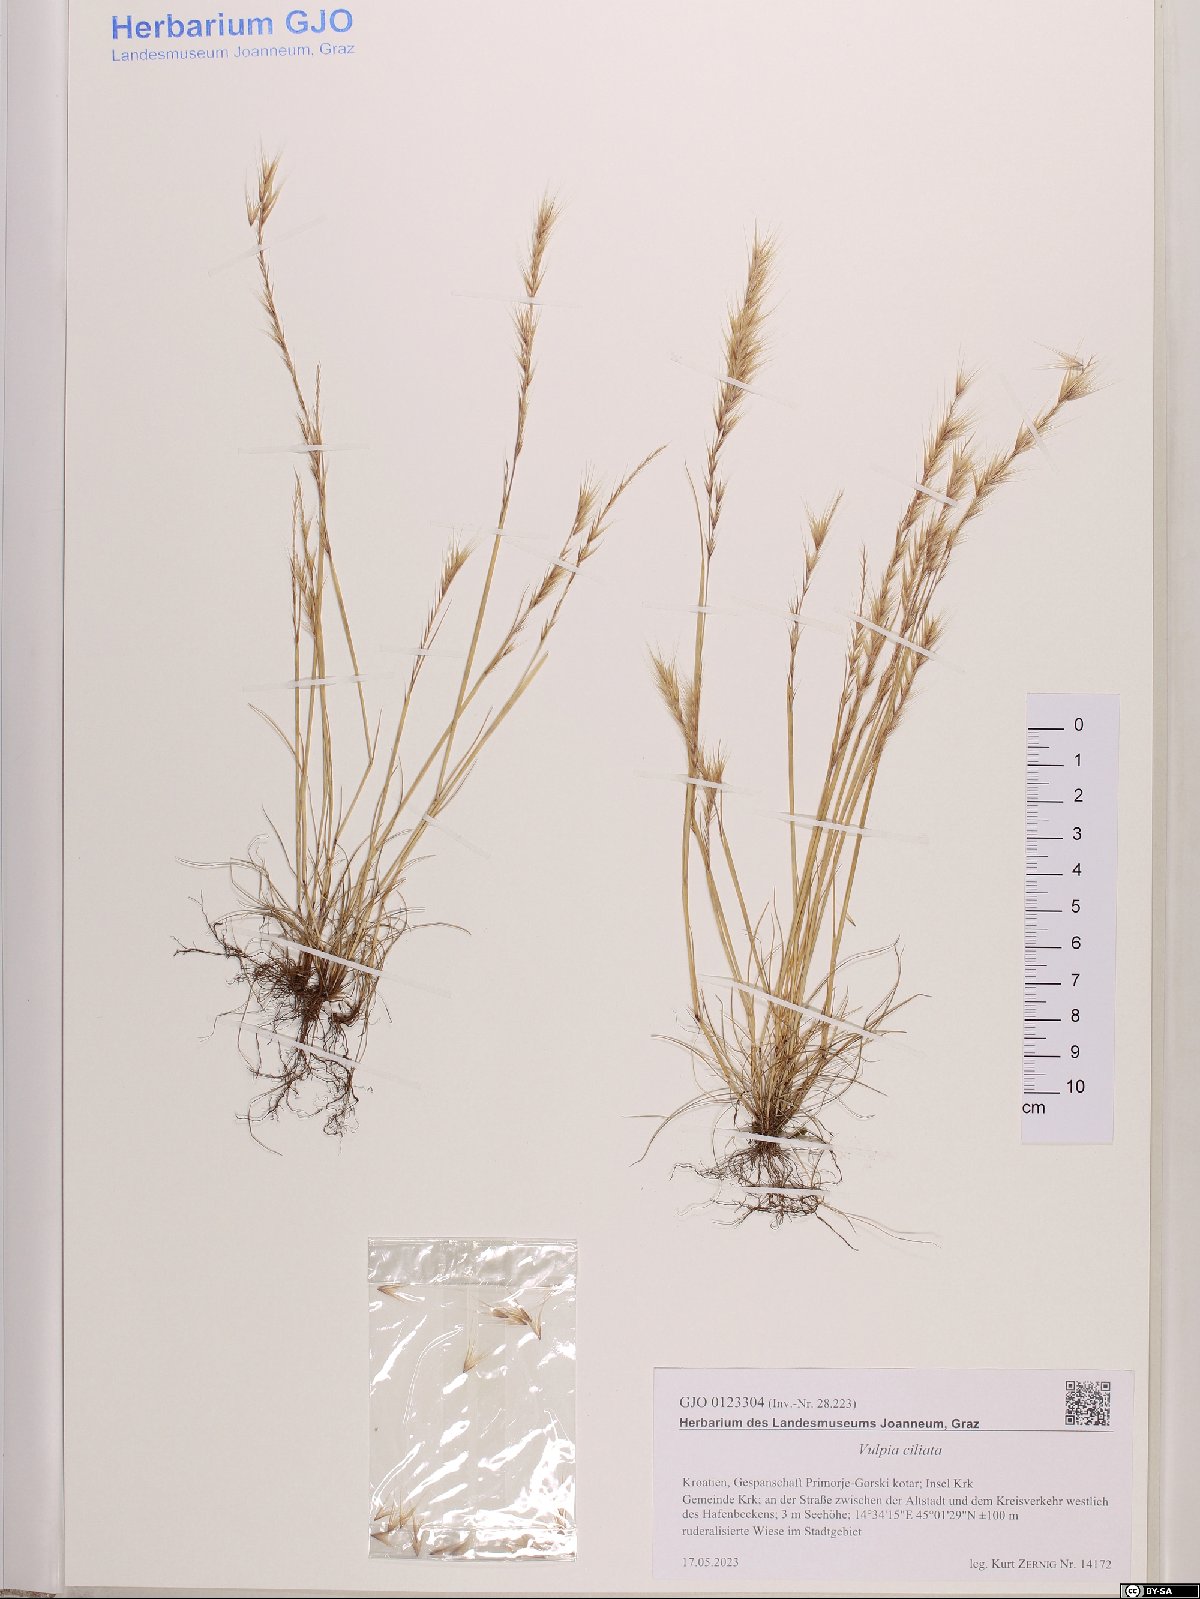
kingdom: Plantae
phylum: Tracheophyta
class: Liliopsida
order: Poales
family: Poaceae
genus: Festuca
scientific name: Festuca ambigua
